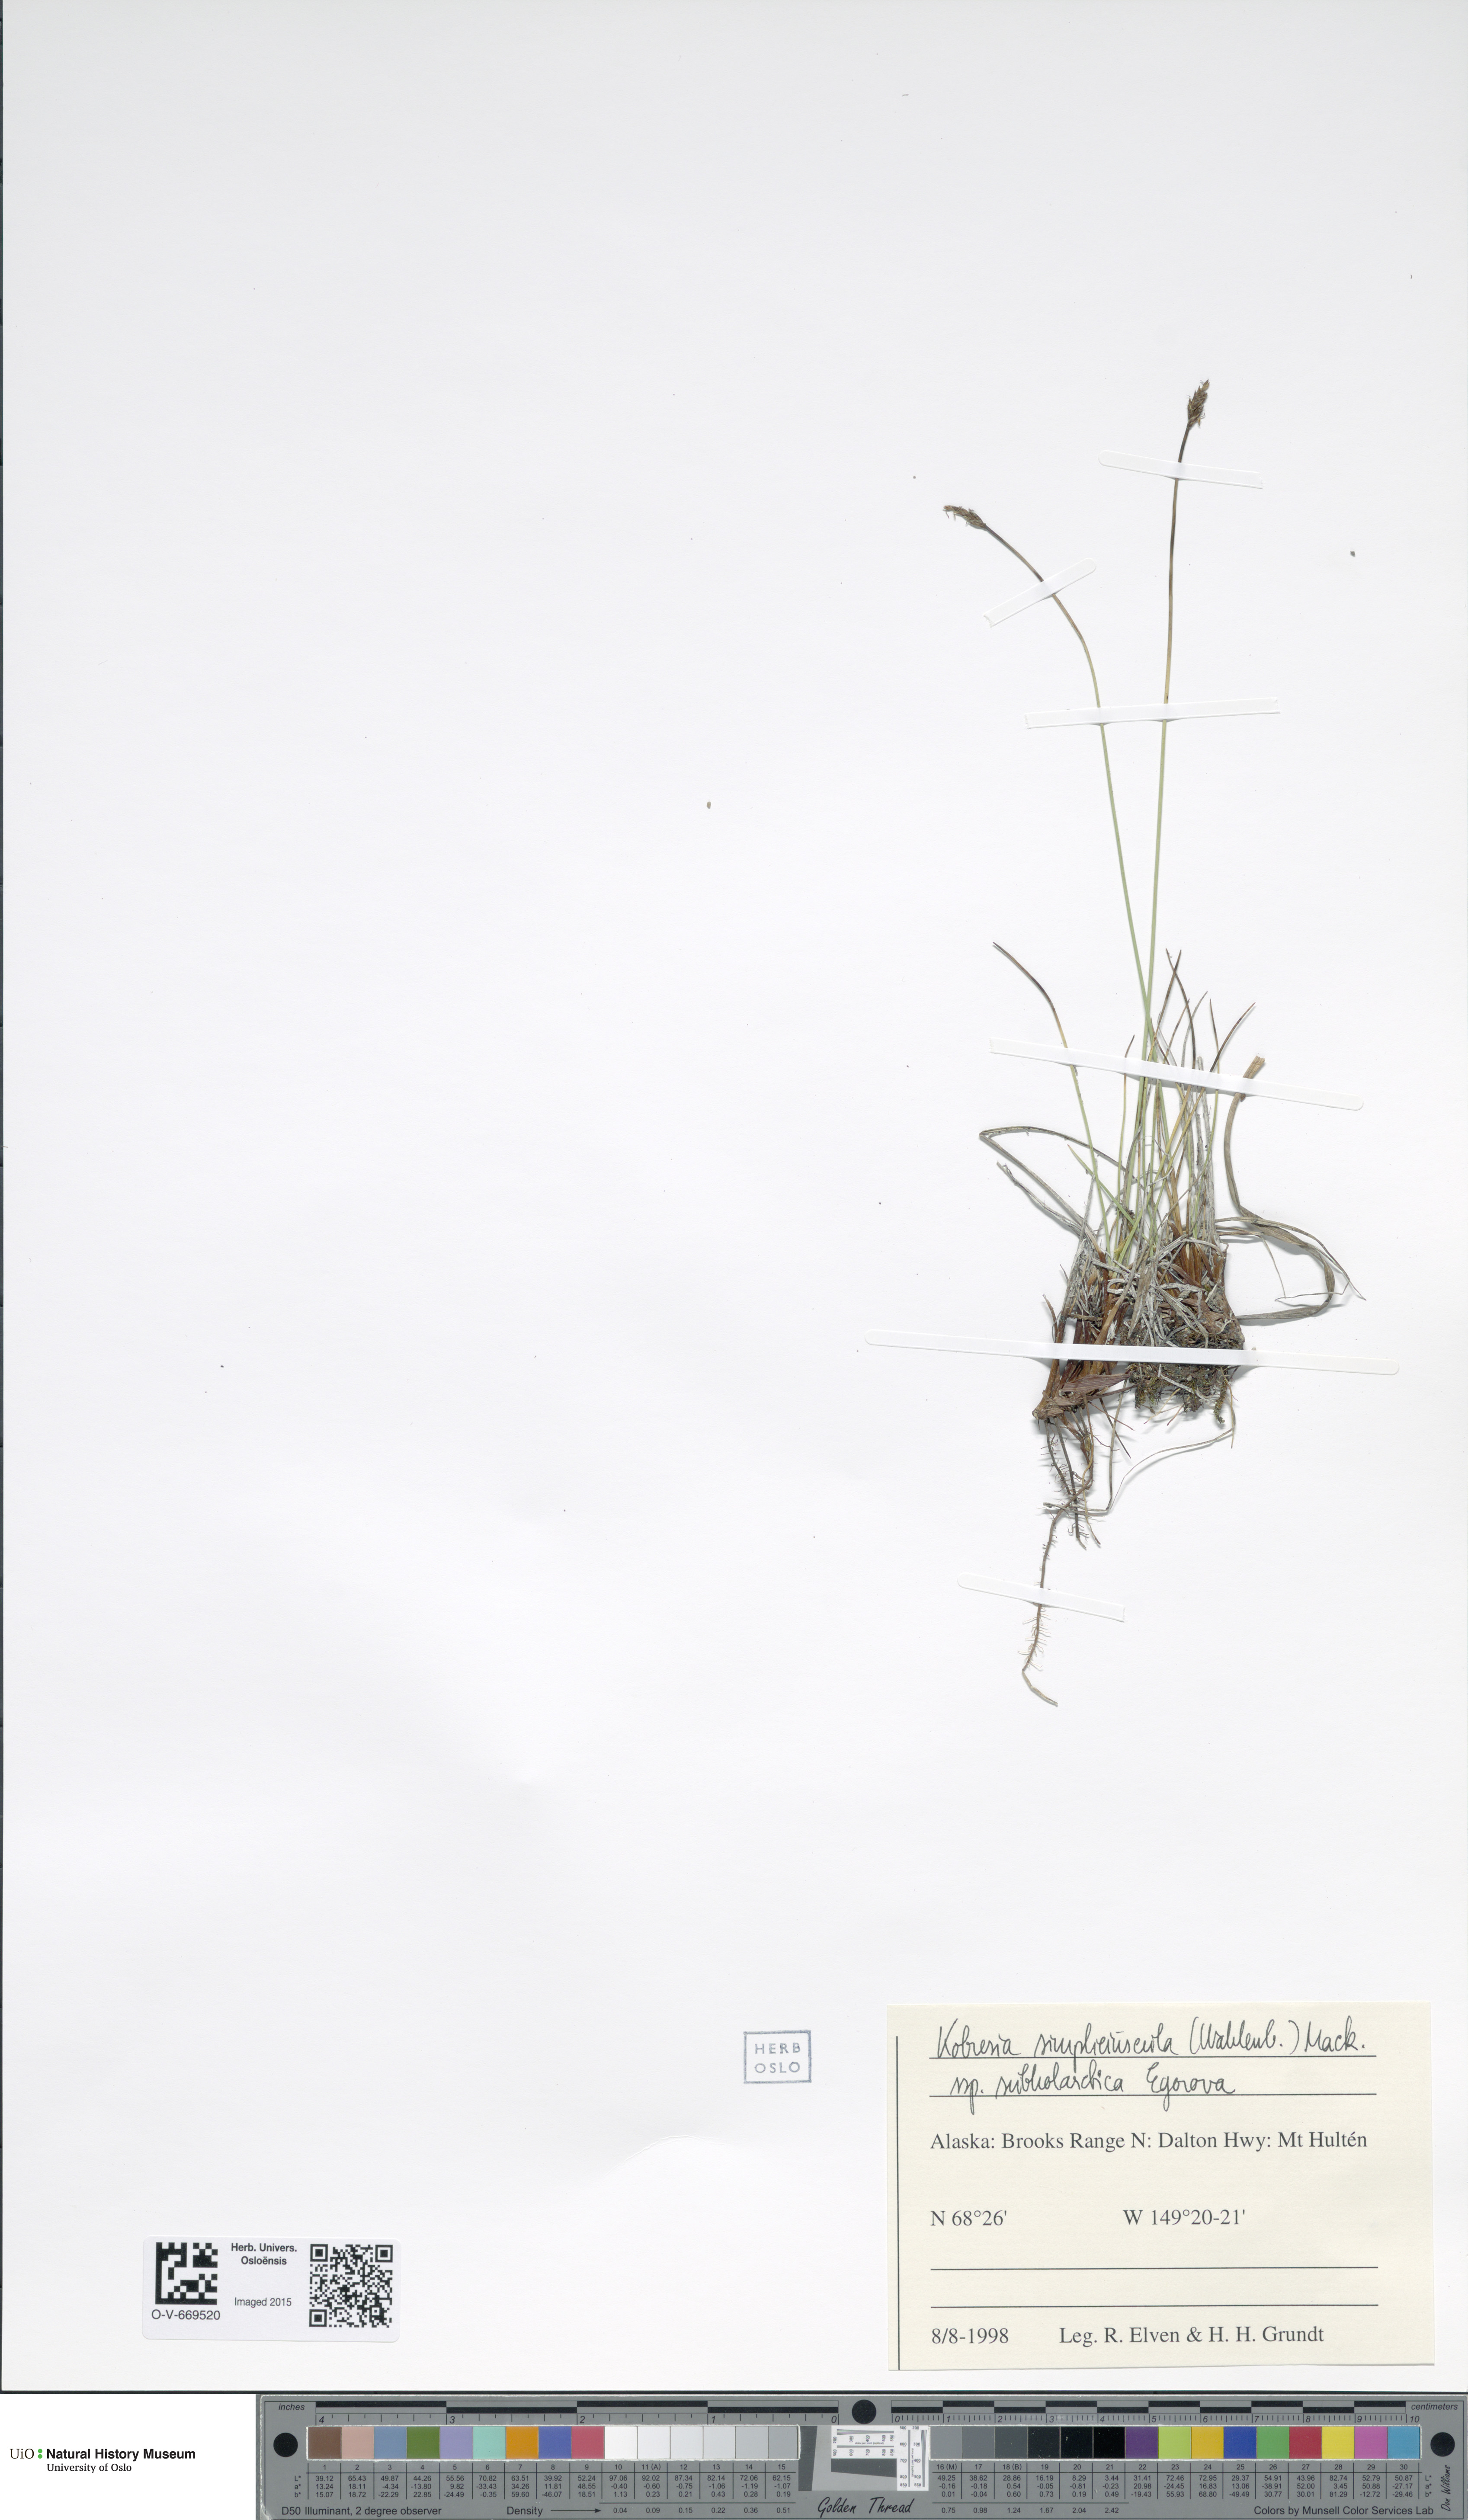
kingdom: Plantae
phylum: Tracheophyta
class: Liliopsida
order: Poales
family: Cyperaceae
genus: Carex
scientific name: Carex simpliciuscula
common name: Simple bog sedge
